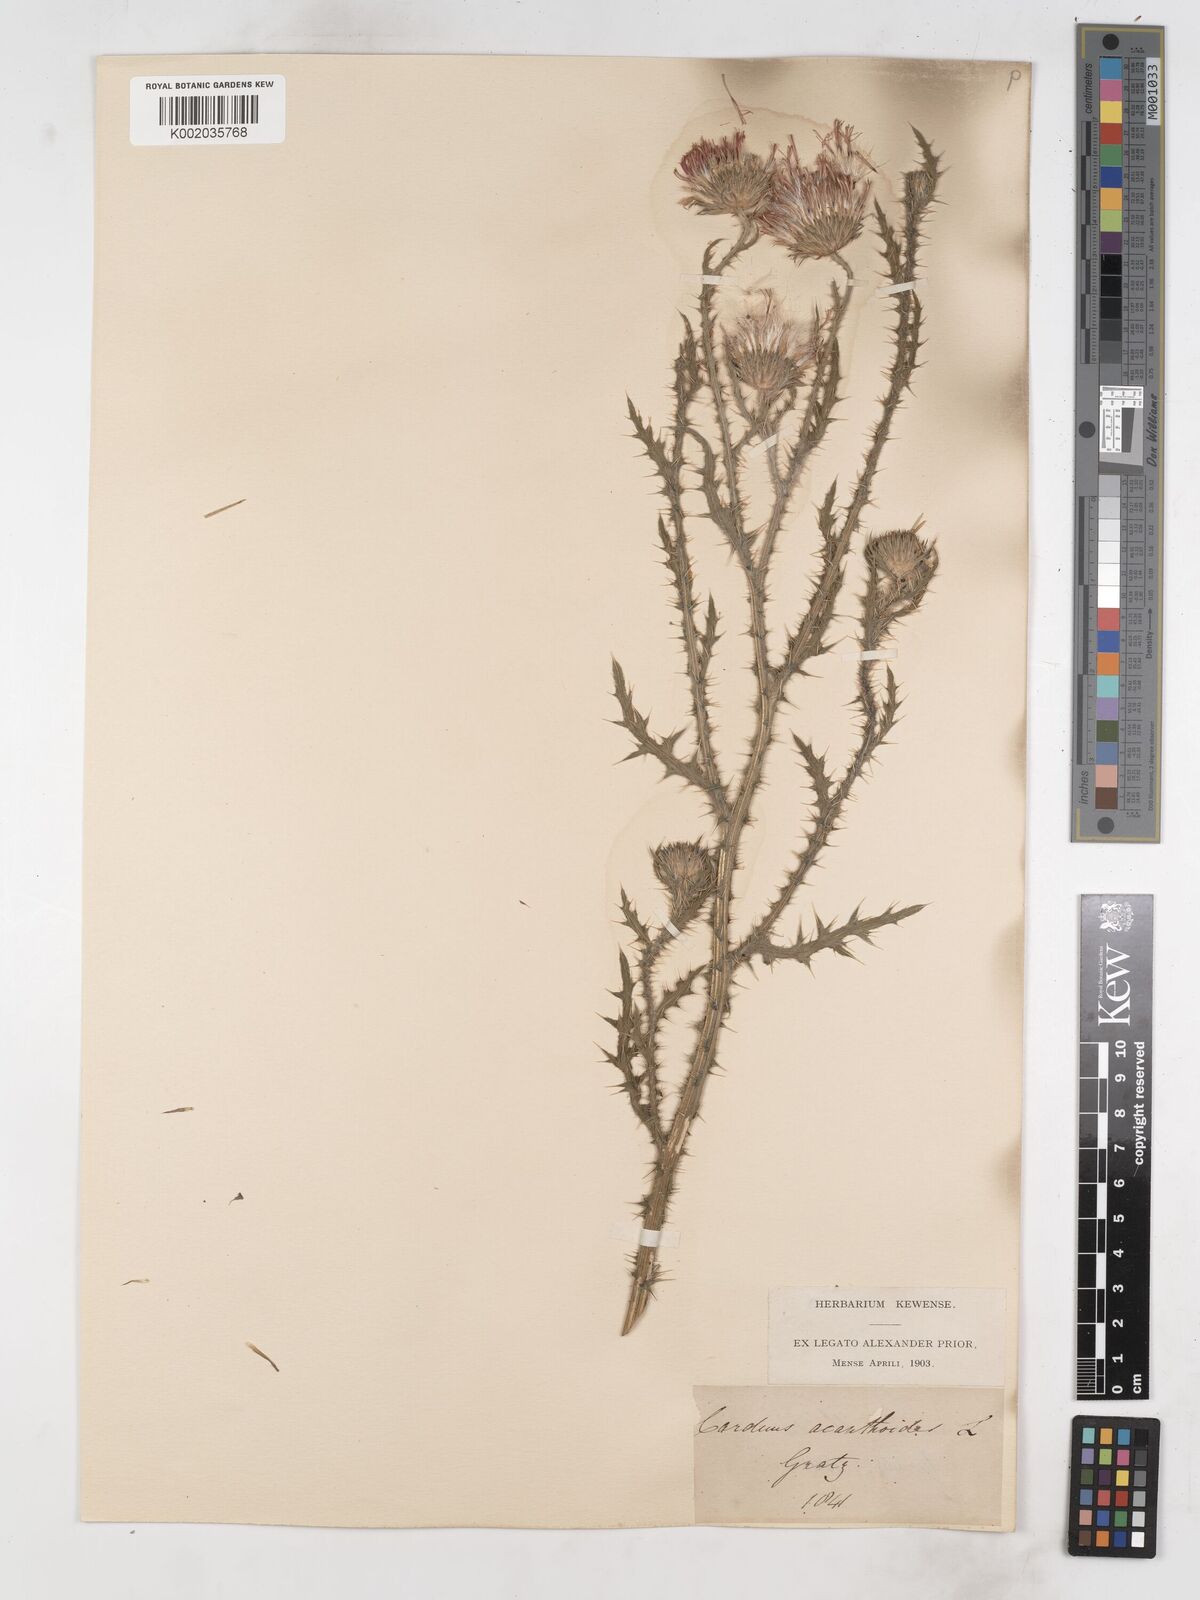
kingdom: Plantae
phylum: Tracheophyta
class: Magnoliopsida
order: Asterales
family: Asteraceae
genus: Carduus
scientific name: Carduus acanthoides
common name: Plumeless thistle
